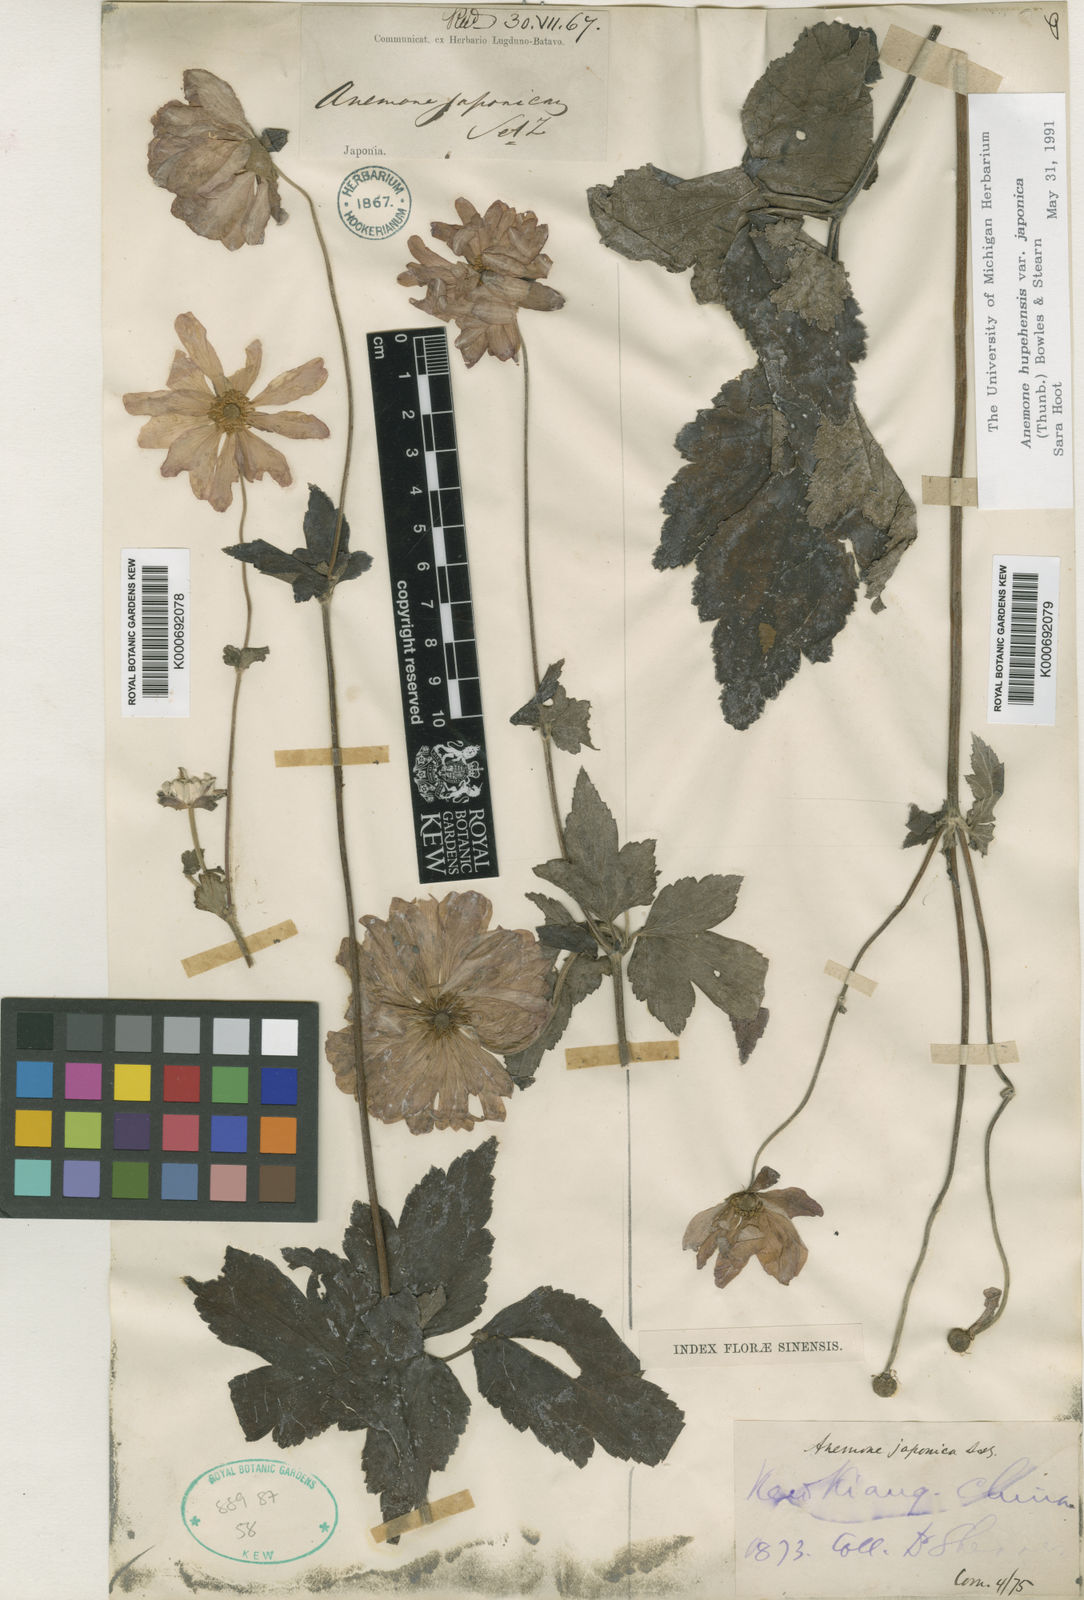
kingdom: Plantae
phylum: Tracheophyta
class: Magnoliopsida
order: Ranunculales
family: Ranunculaceae
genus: Eriocapitella
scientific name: Eriocapitella vitifolia
